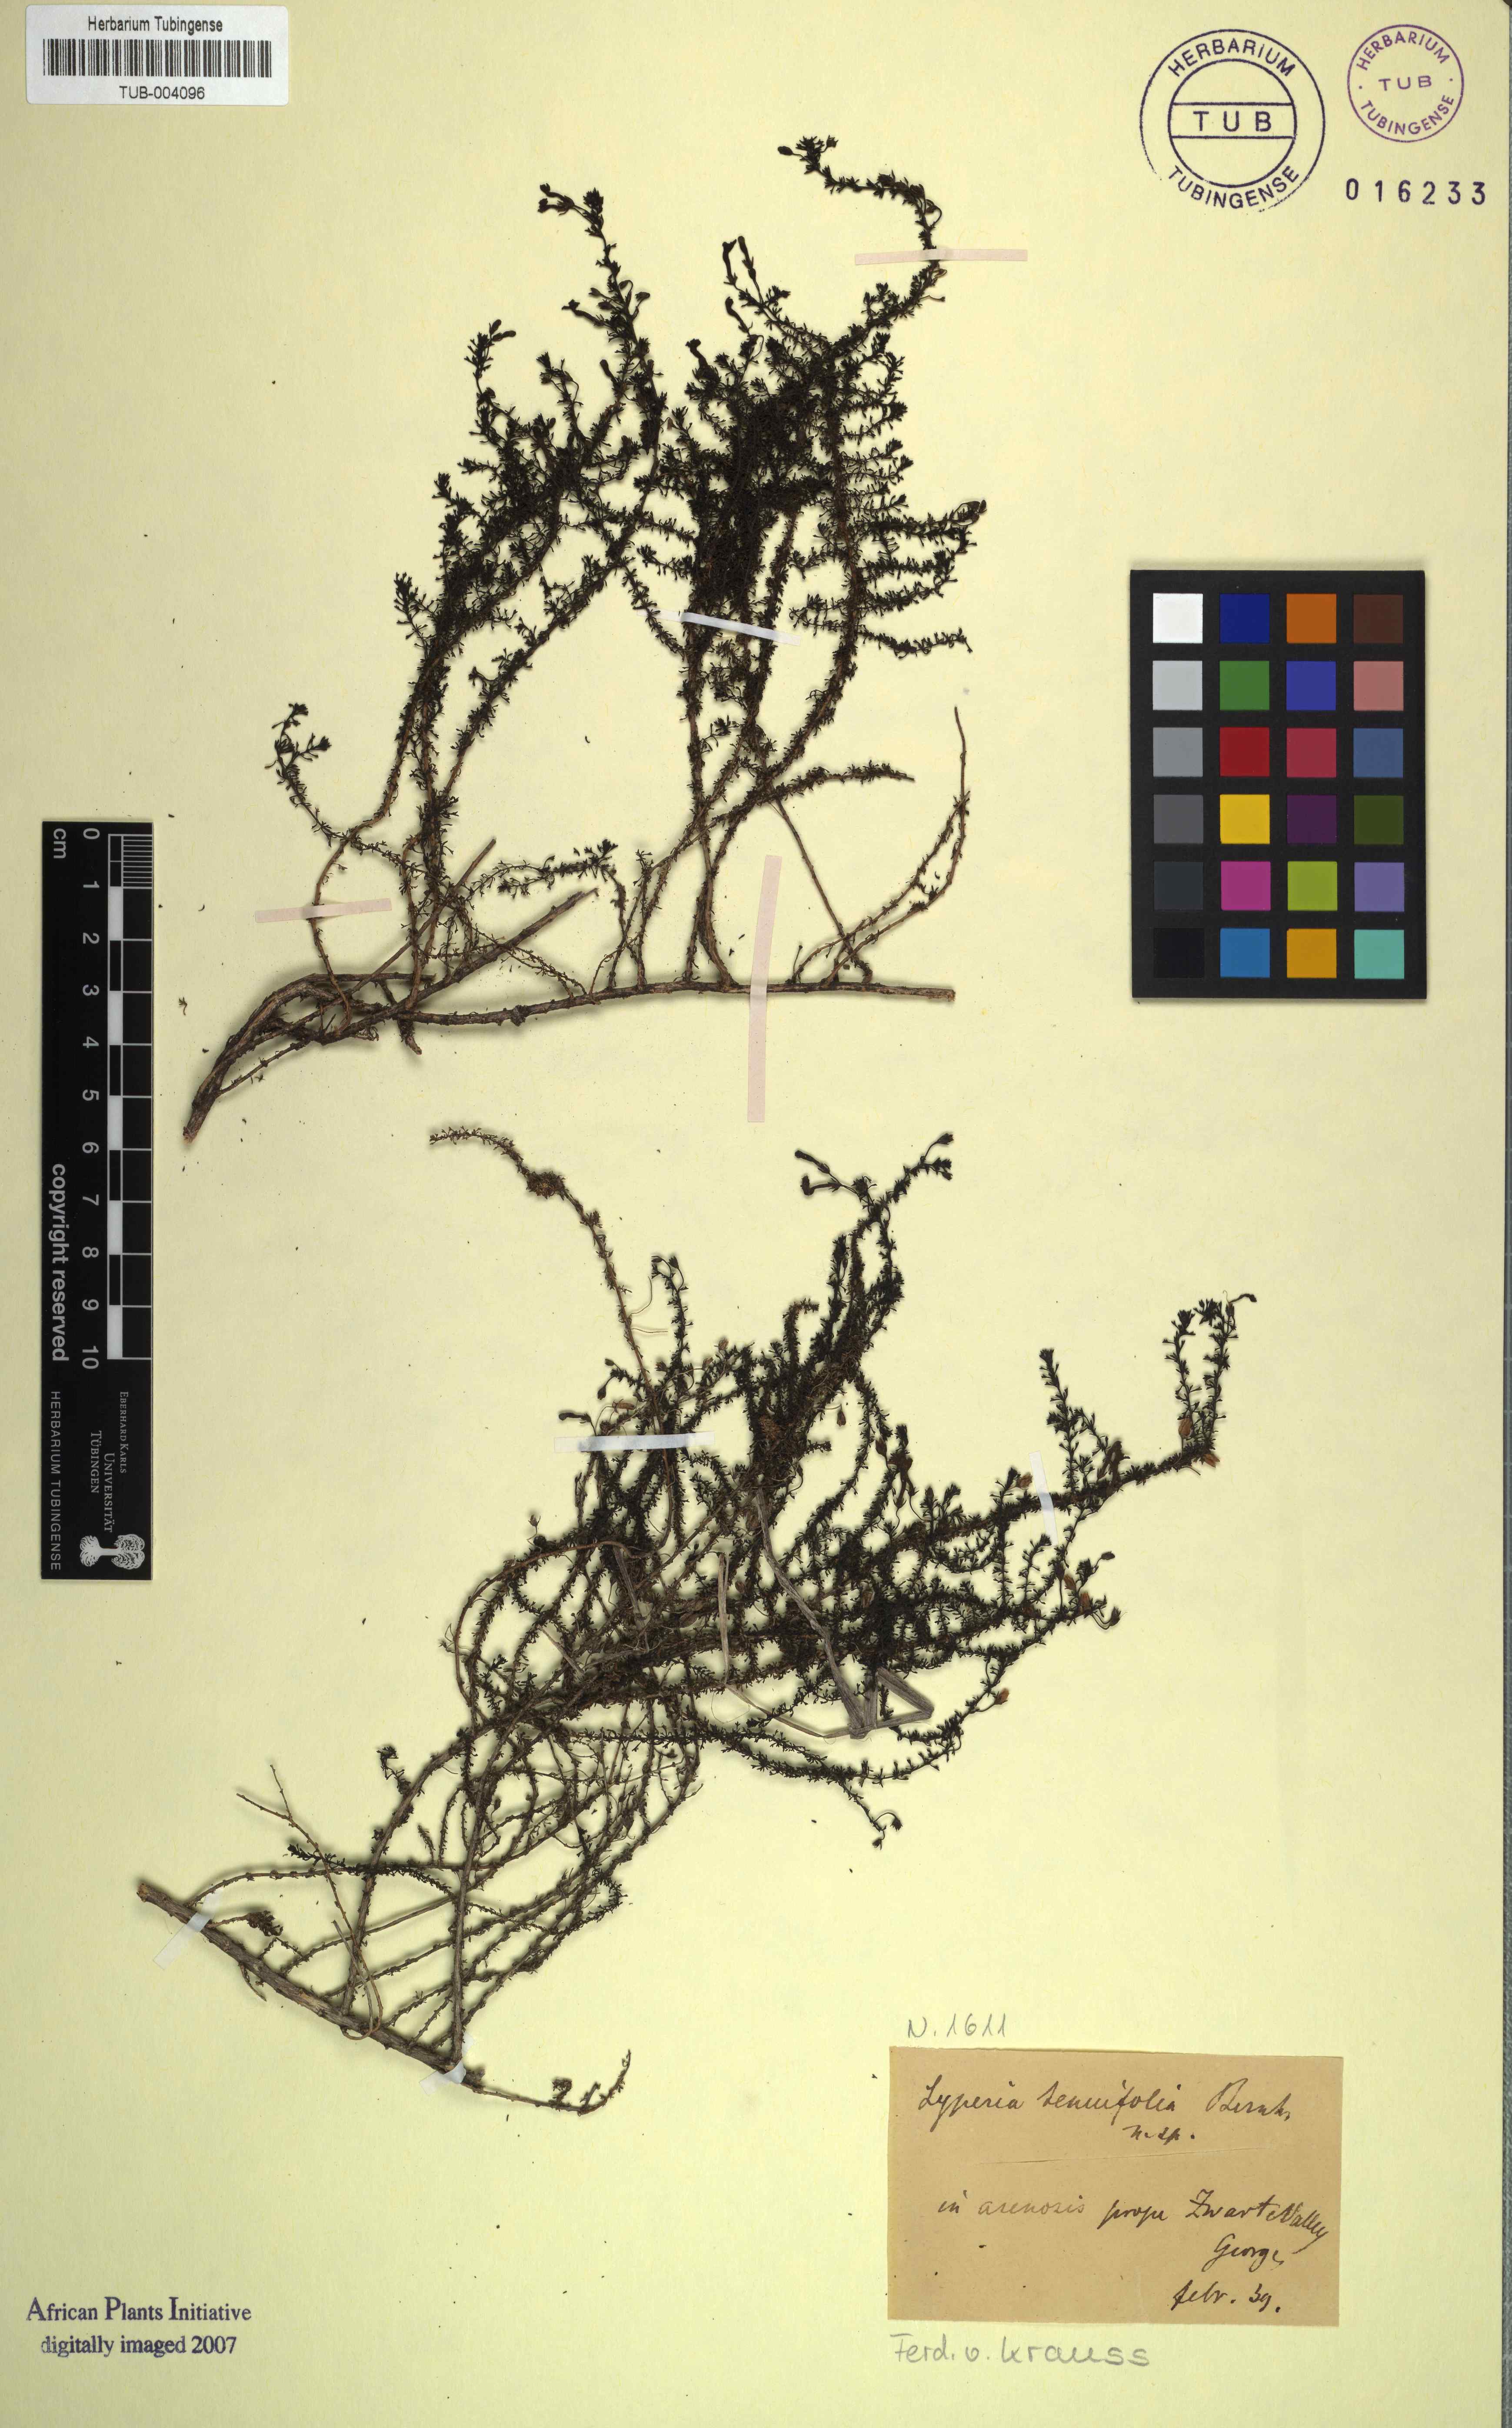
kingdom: Plantae
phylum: Tracheophyta
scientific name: Tracheophyta
